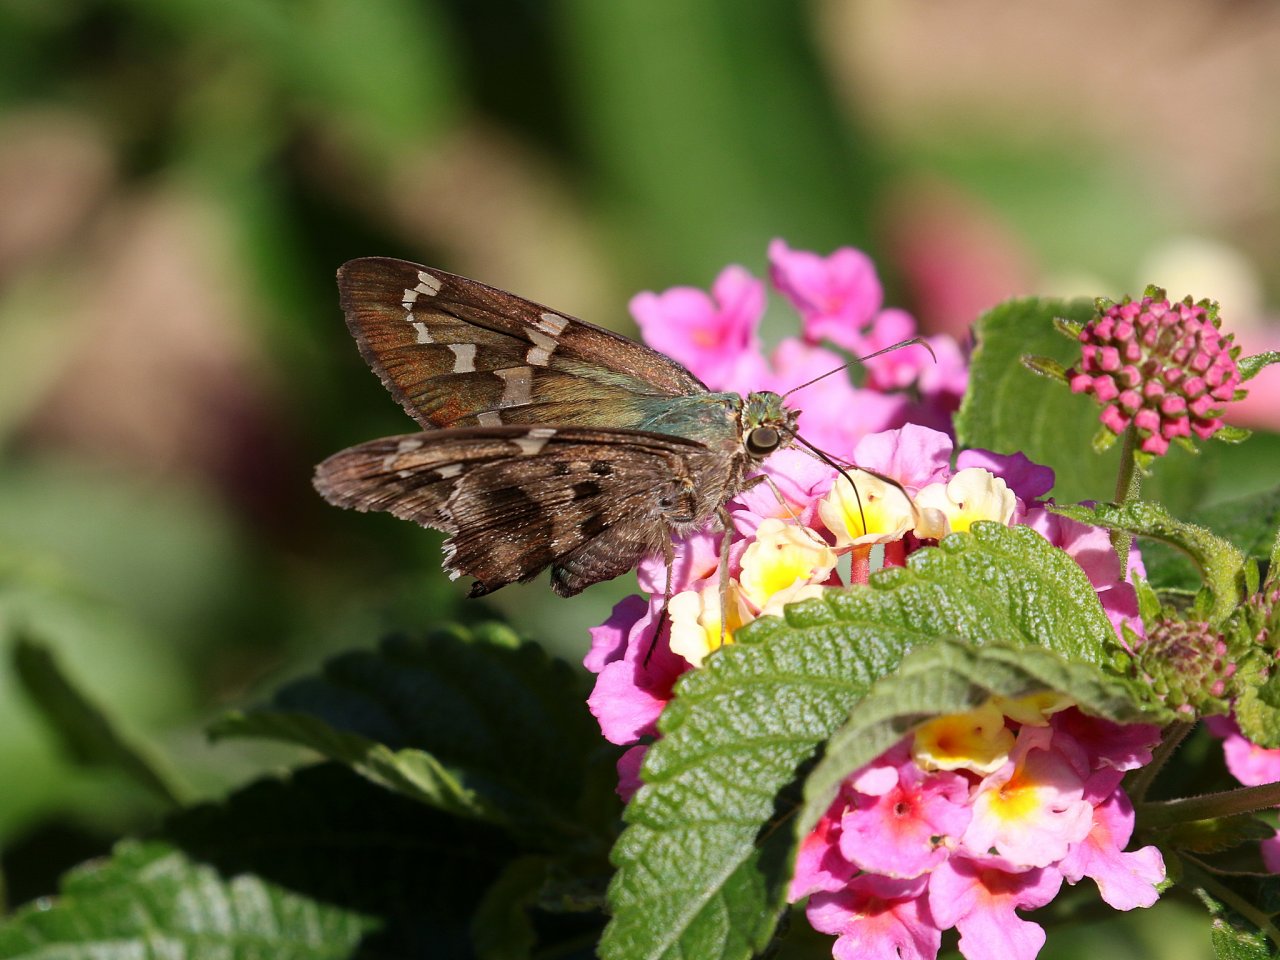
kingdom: Animalia
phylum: Arthropoda
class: Insecta
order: Lepidoptera
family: Hesperiidae
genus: Urbanus
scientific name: Urbanus proteus
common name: Long-tailed Skipper
